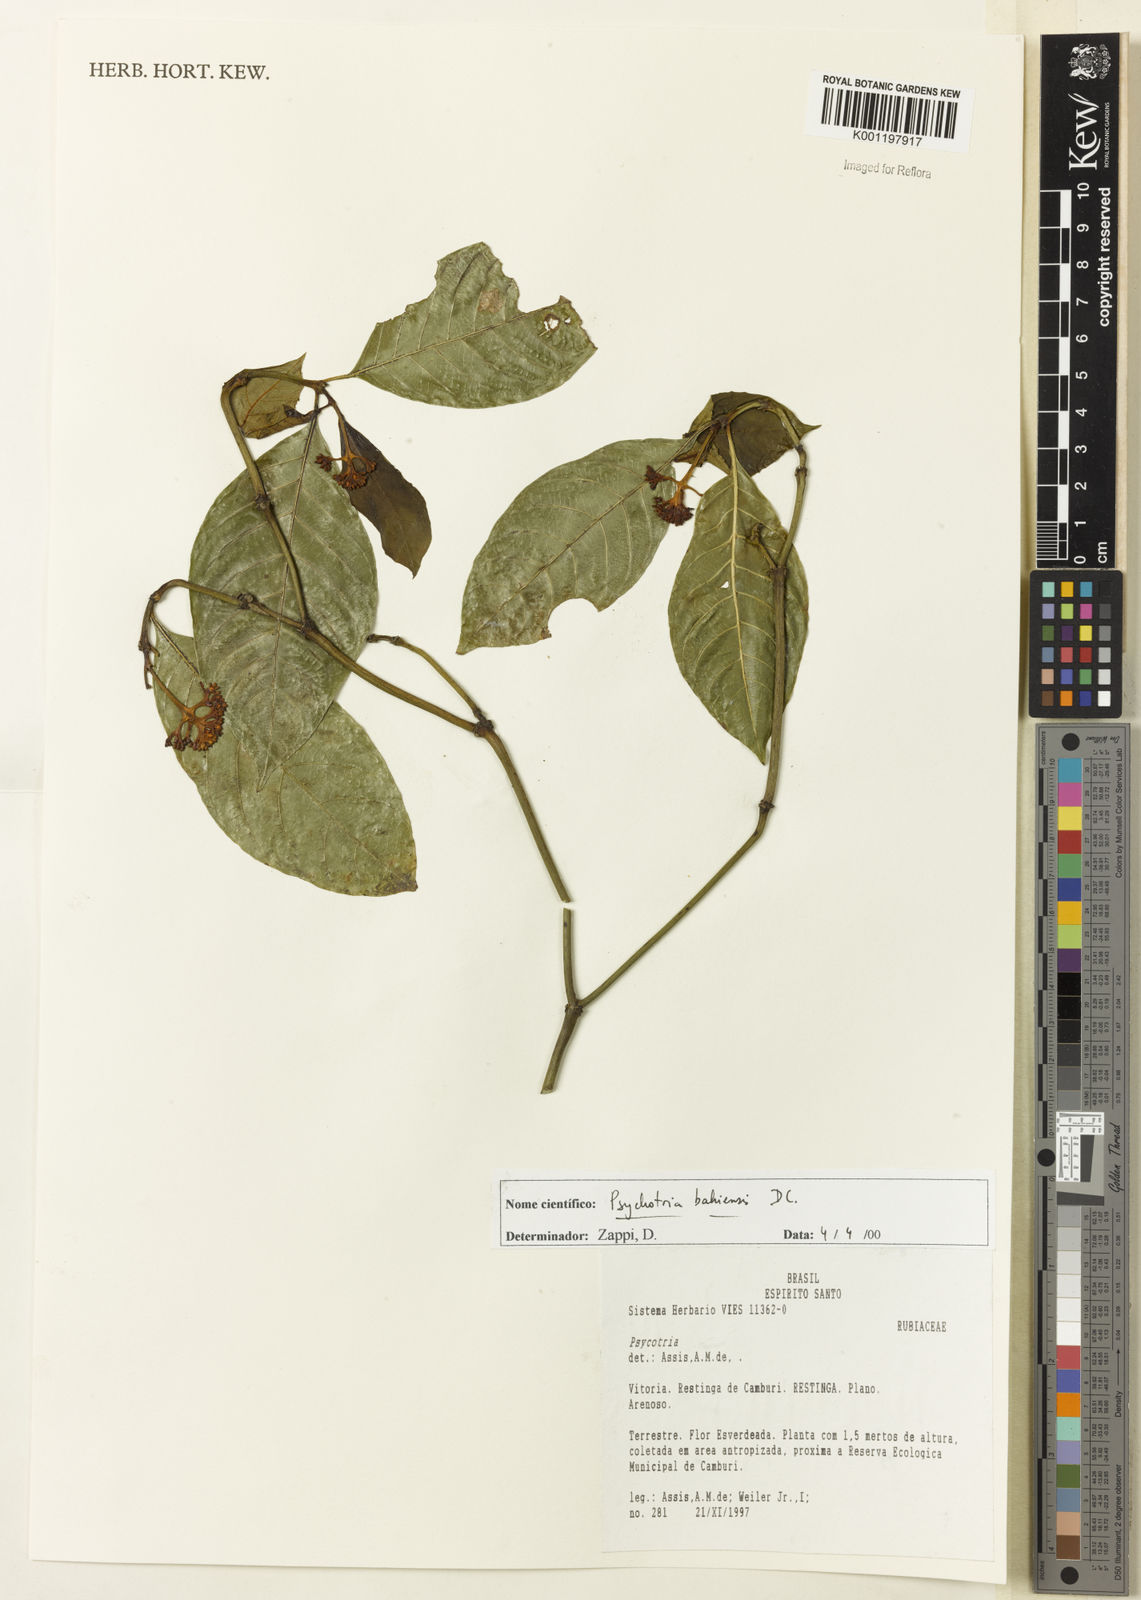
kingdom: Plantae
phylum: Tracheophyta
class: Magnoliopsida
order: Gentianales
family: Rubiaceae
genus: Psychotria
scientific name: Psychotria bahiensis
